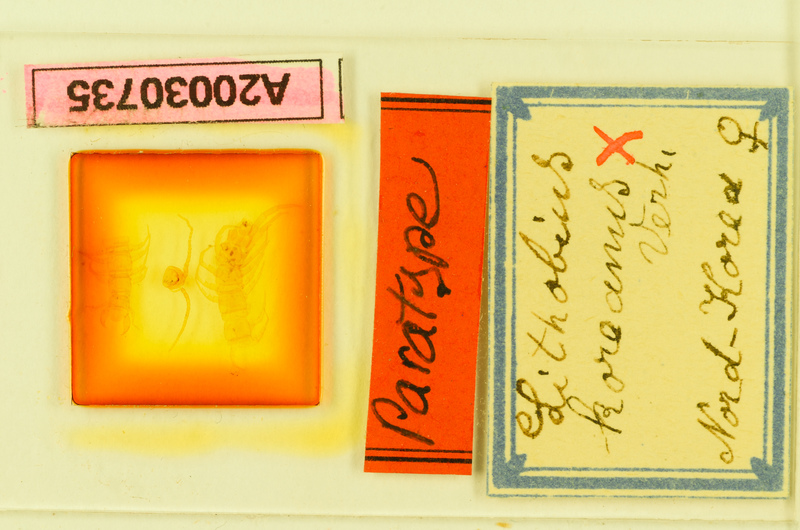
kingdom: Animalia
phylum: Arthropoda
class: Chilopoda
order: Lithobiomorpha
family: Lithobiidae
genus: Lithobius
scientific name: Lithobius koreanus
